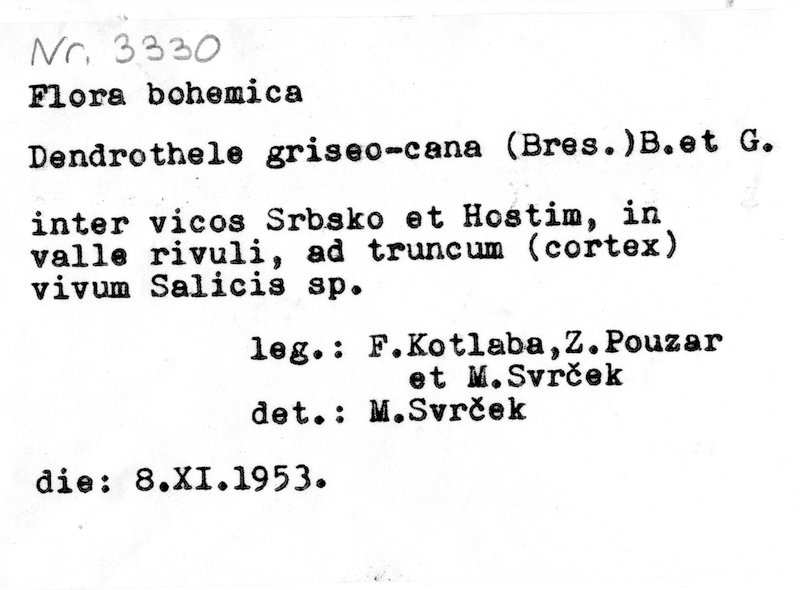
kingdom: Fungi
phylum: Basidiomycota
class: Agaricomycetes
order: Agaricales
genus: Dendrothele
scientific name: Dendrothele griseocana
